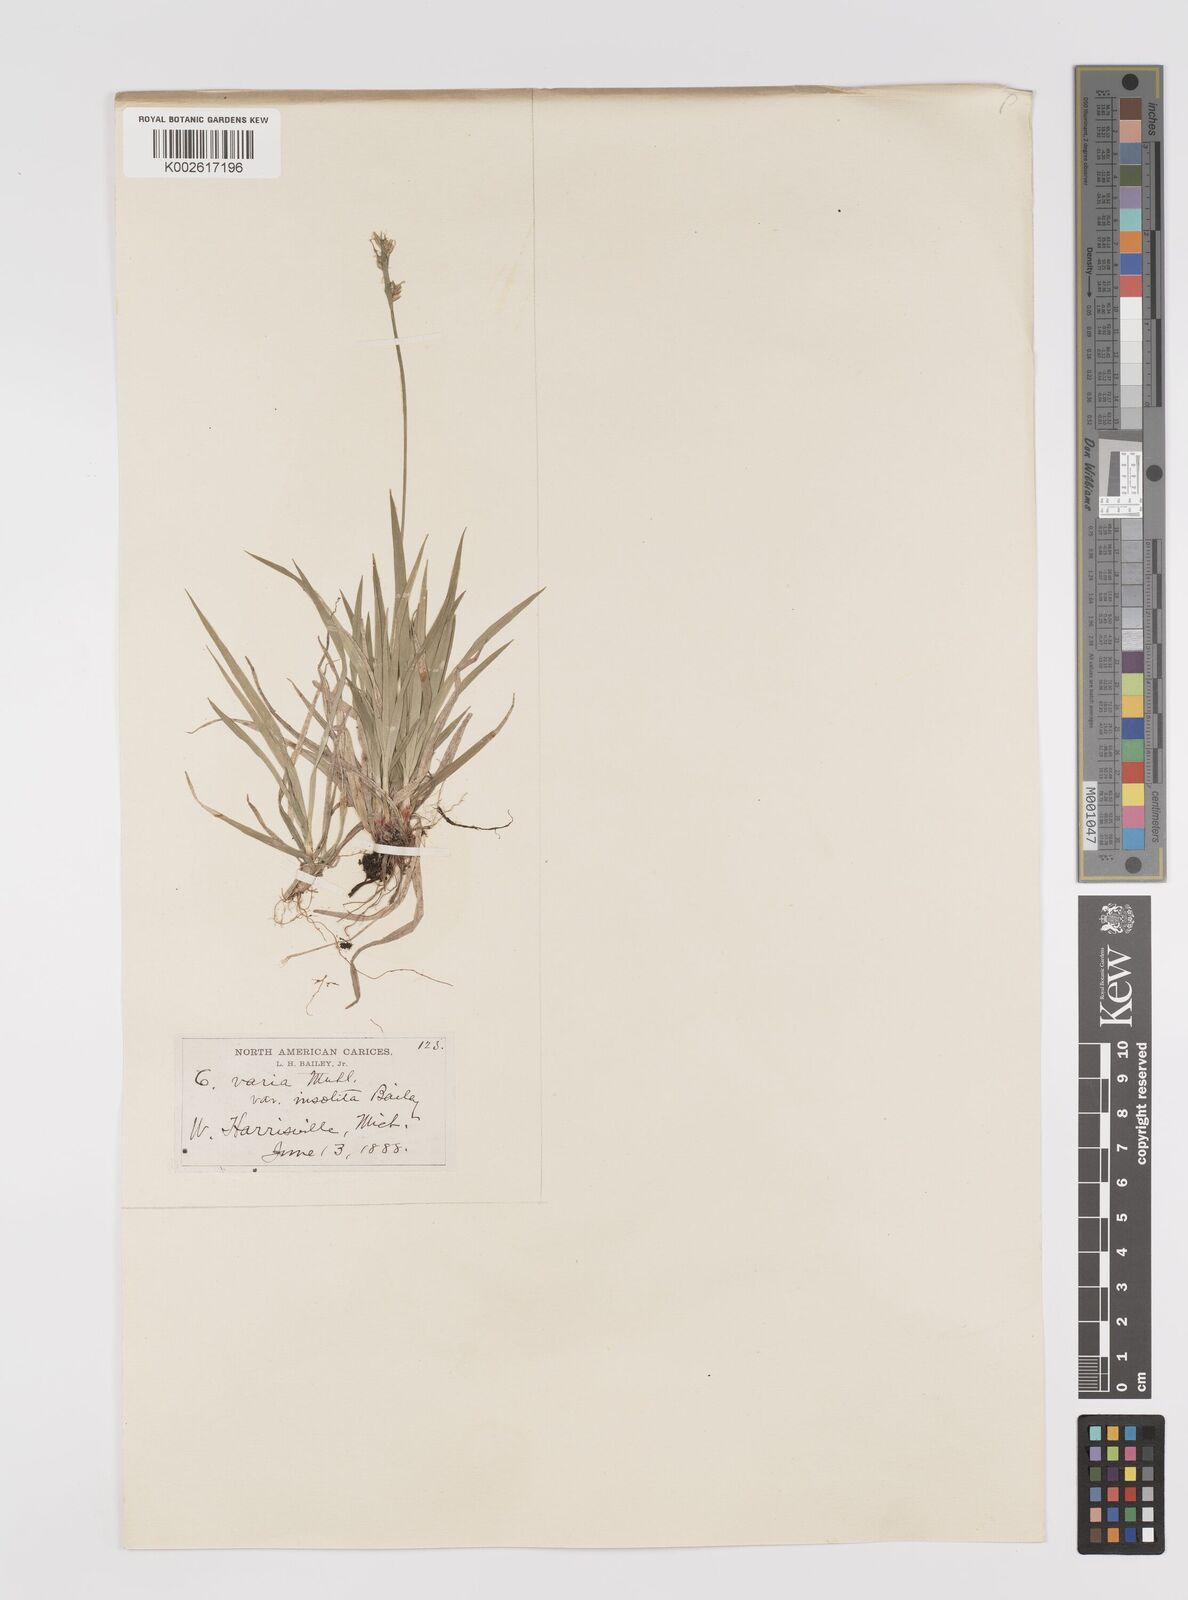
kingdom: Plantae
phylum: Tracheophyta
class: Liliopsida
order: Poales
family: Cyperaceae
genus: Carex
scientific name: Carex albicans
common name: Bellow-beaked sedge
